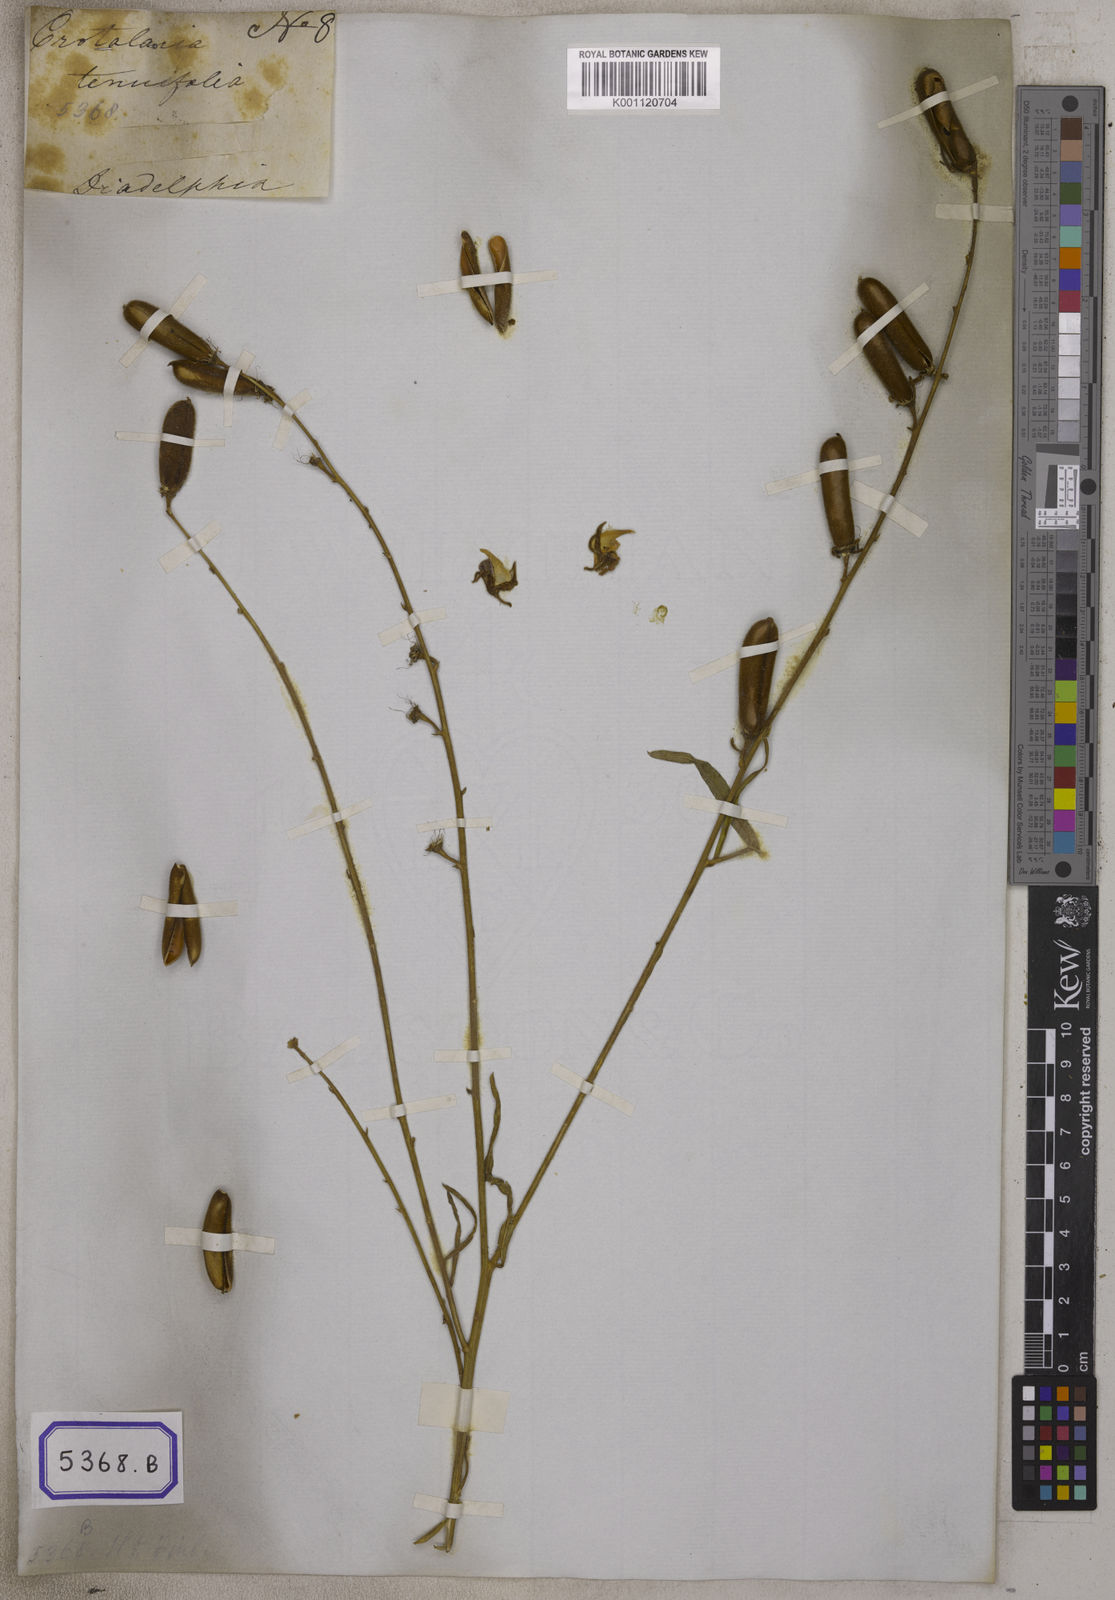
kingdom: Plantae
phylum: Tracheophyta
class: Magnoliopsida
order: Fabales
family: Fabaceae
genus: Crotalaria
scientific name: Crotalaria
